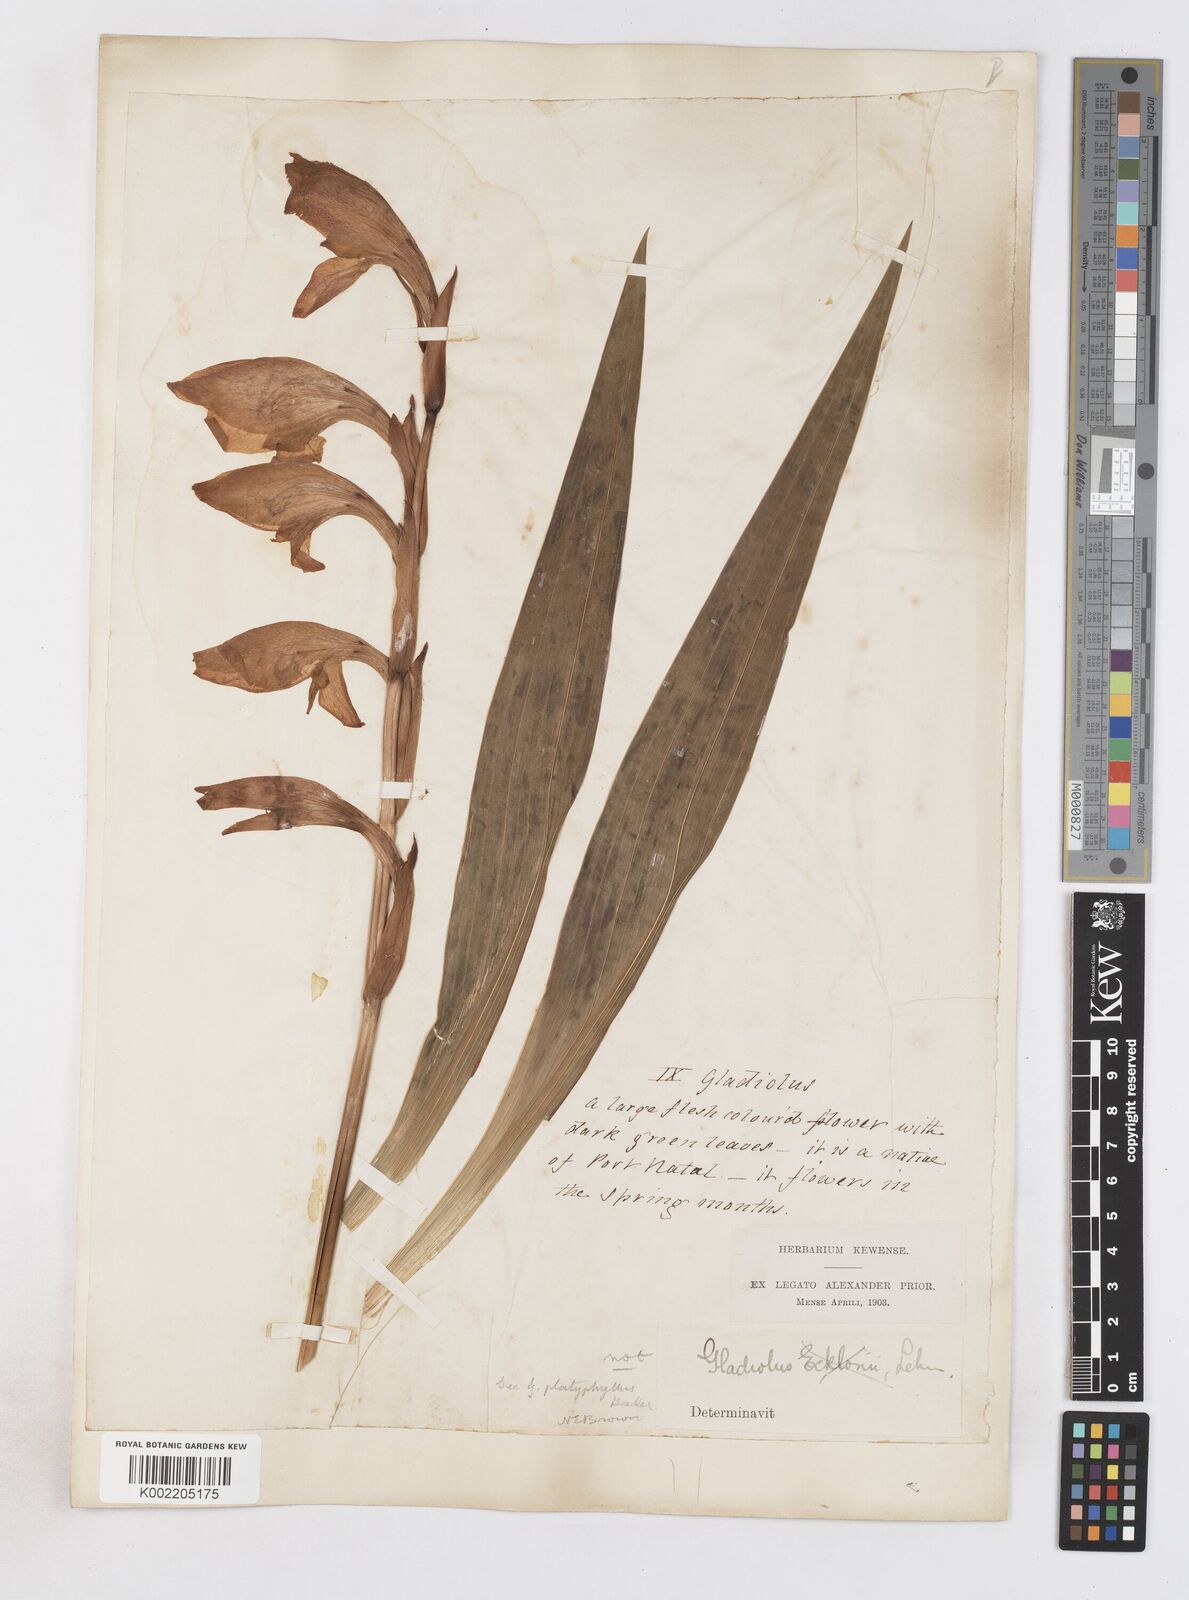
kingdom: Plantae
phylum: Tracheophyta
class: Liliopsida
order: Asparagales
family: Iridaceae
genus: Gladiolus
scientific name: Gladiolus dalenii
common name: Cornflag
